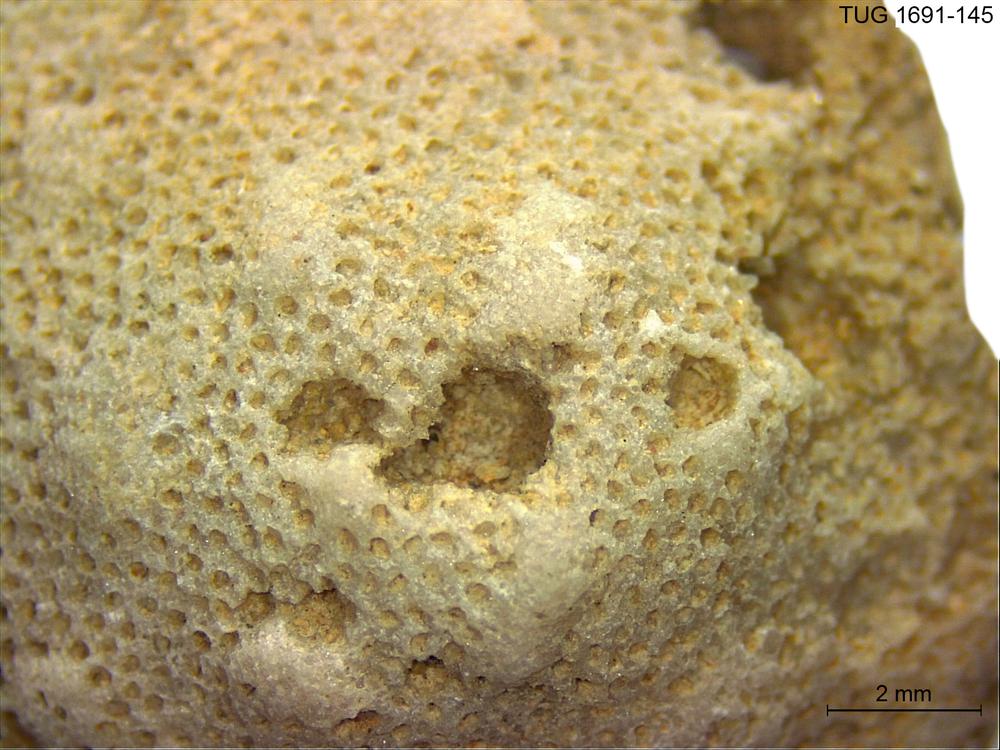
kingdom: Animalia
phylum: Bryozoa
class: Stenolaemata
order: Trepostomatida
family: Diplotrypidae
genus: Diplotrypa
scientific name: Diplotrypa
